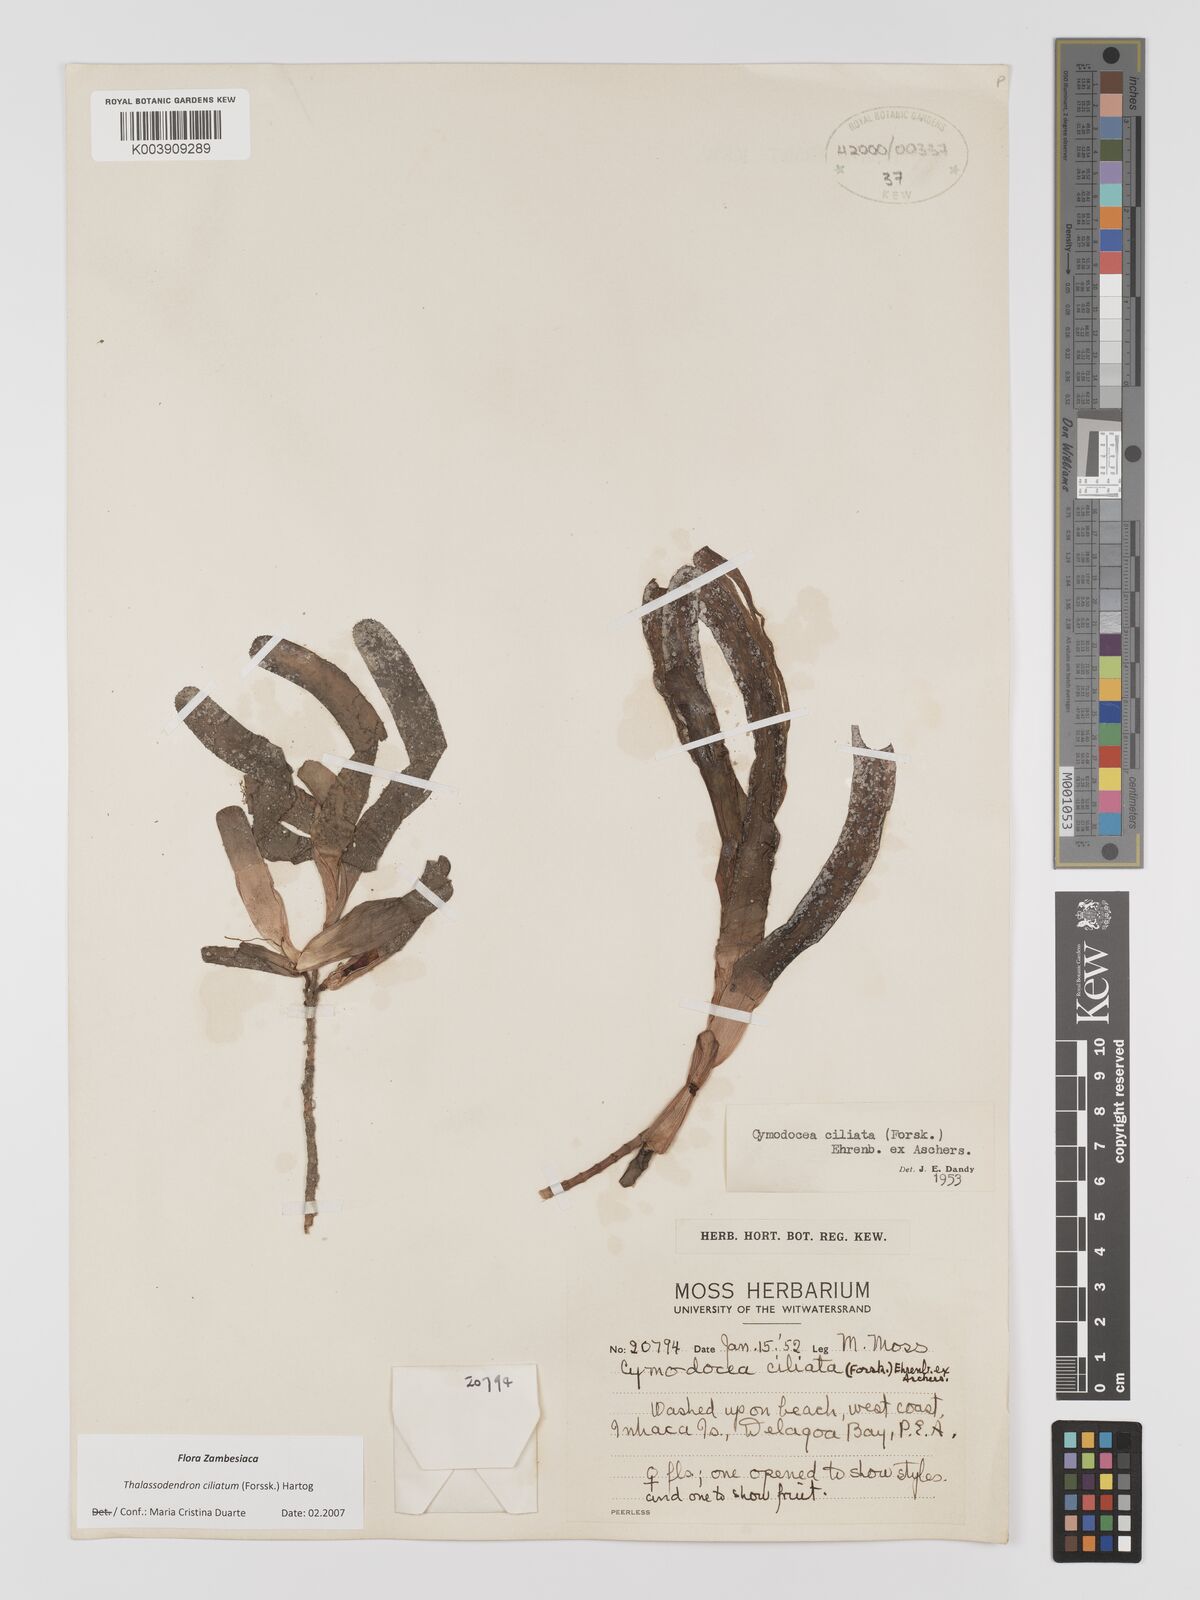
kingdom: Plantae
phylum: Tracheophyta
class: Liliopsida
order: Alismatales
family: Cymodoceaceae
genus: Thalassodendron
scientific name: Thalassodendron ciliatum
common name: Species code: tc
